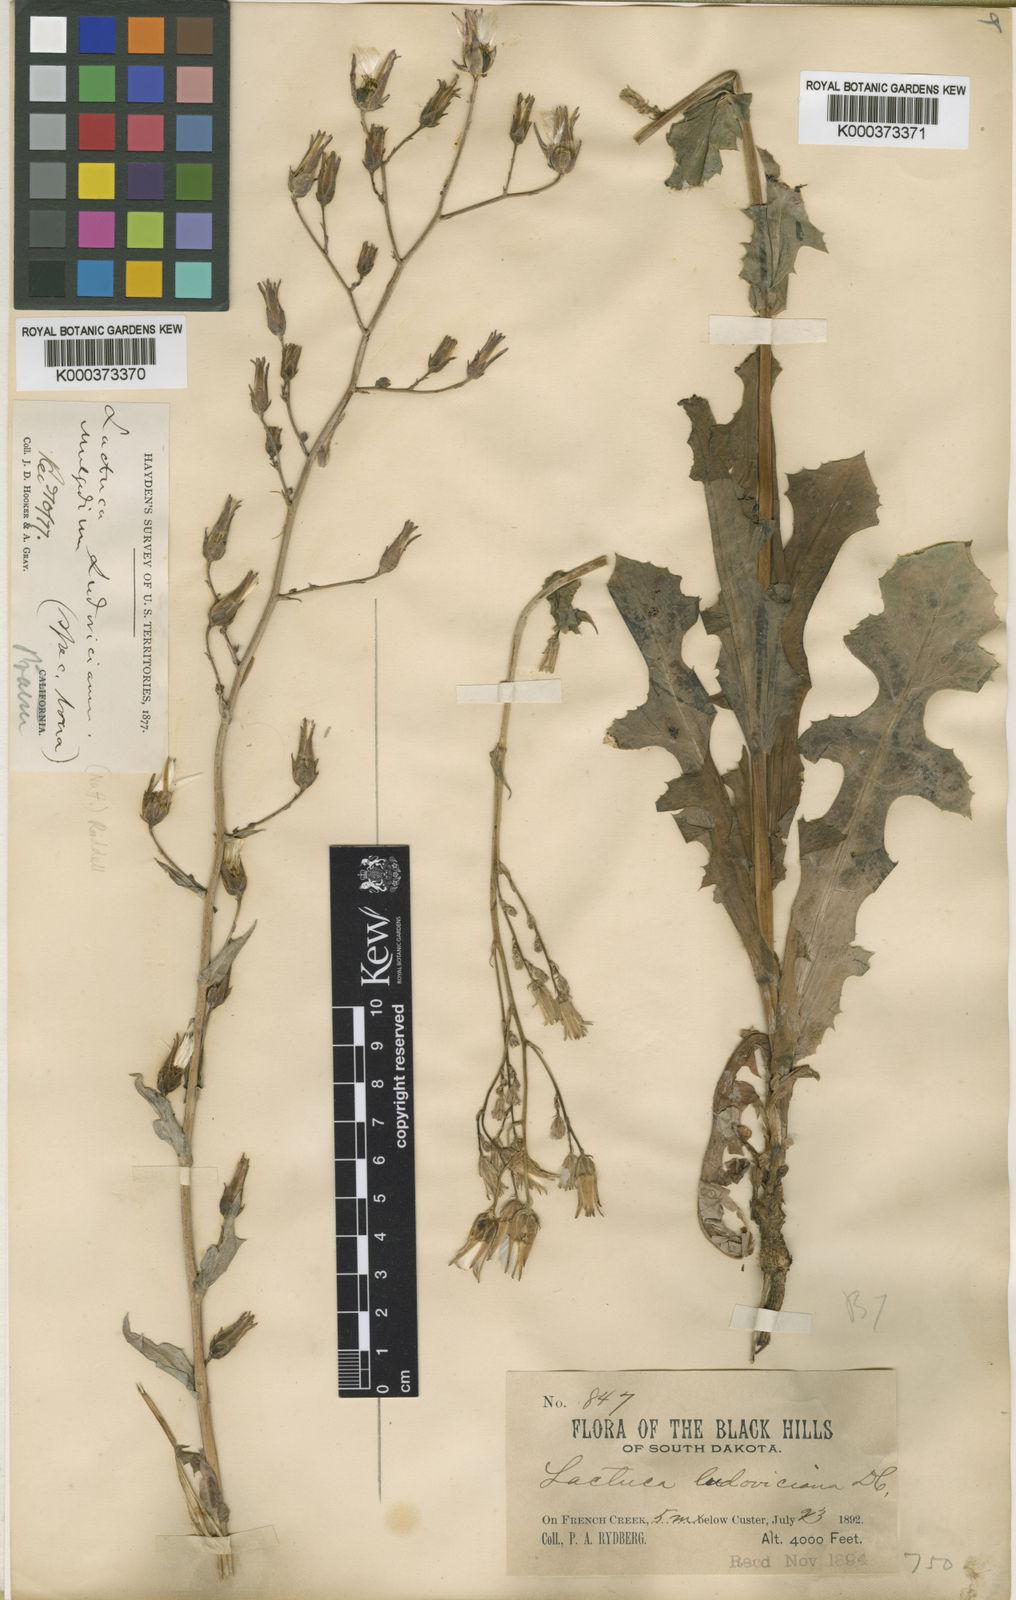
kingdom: Plantae
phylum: Tracheophyta
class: Magnoliopsida
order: Asterales
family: Asteraceae
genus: Lactuca
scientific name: Lactuca ludoviciana
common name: Louisiana lettuce
